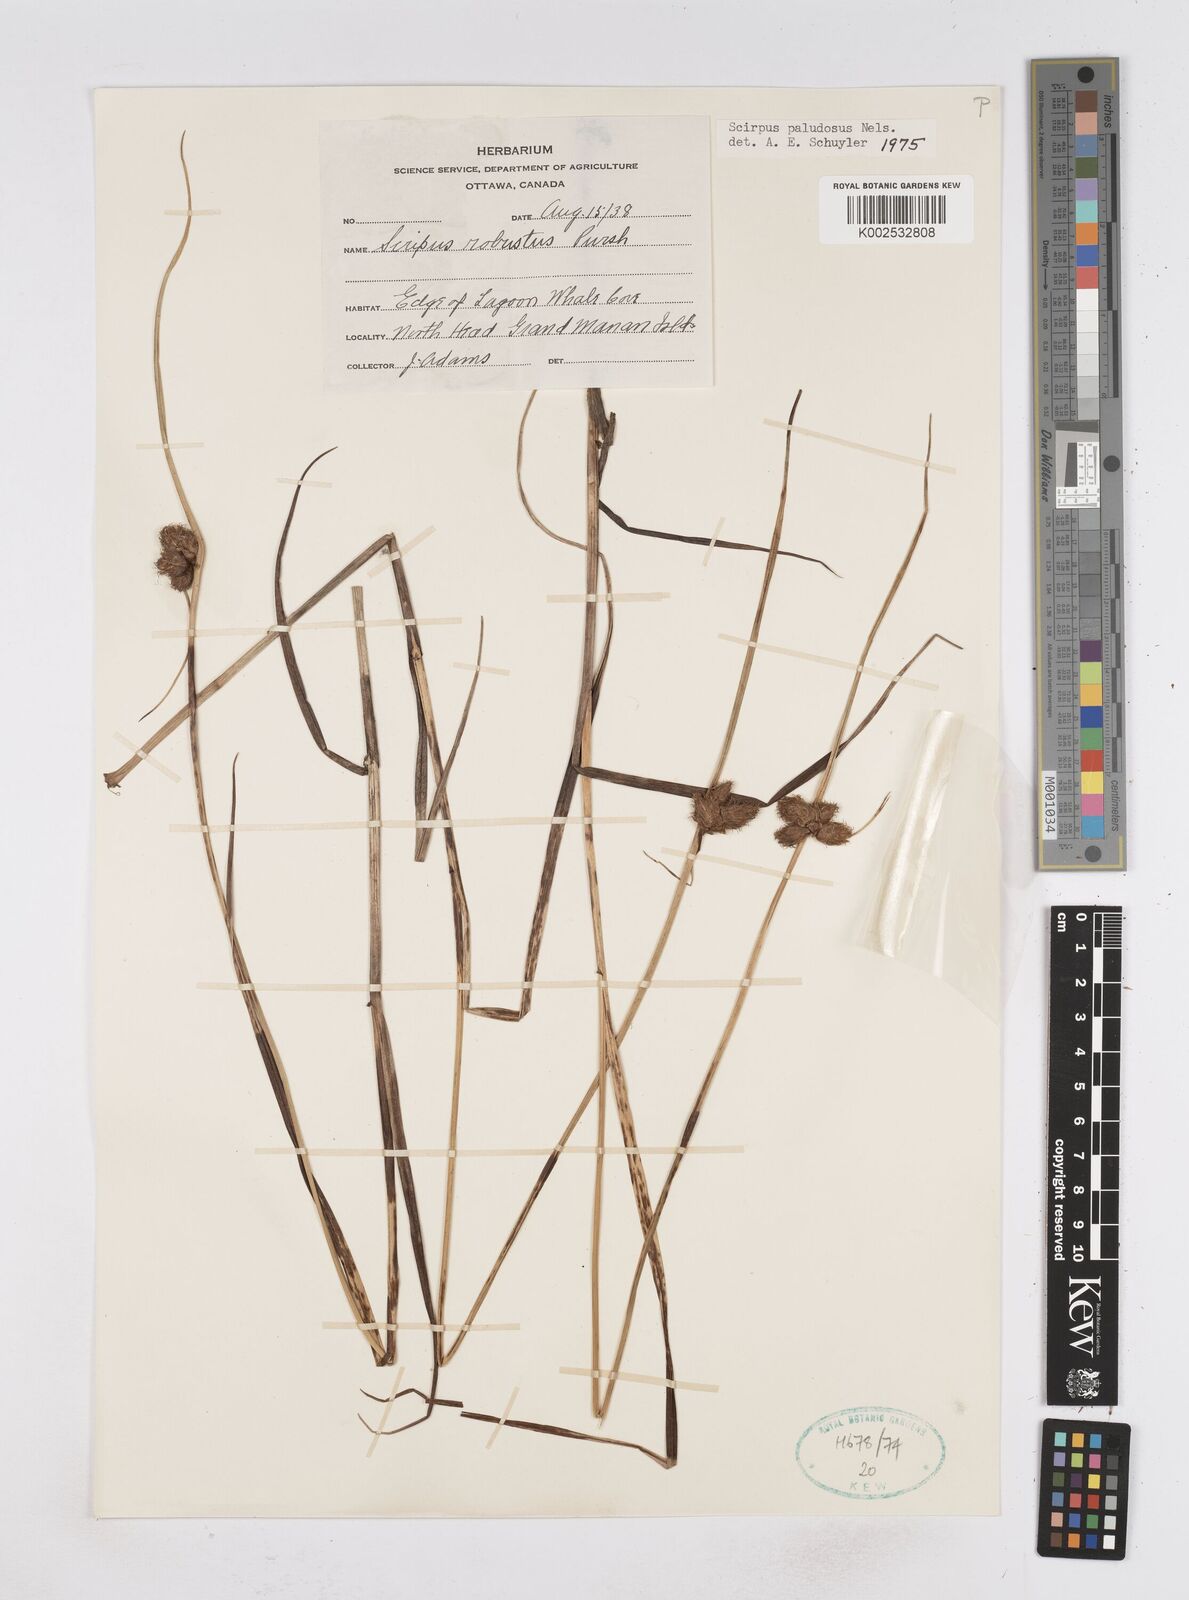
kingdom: Plantae
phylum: Tracheophyta
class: Liliopsida
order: Poales
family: Cyperaceae
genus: Bolboschoenus
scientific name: Bolboschoenus maritimus
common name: Sea club-rush
